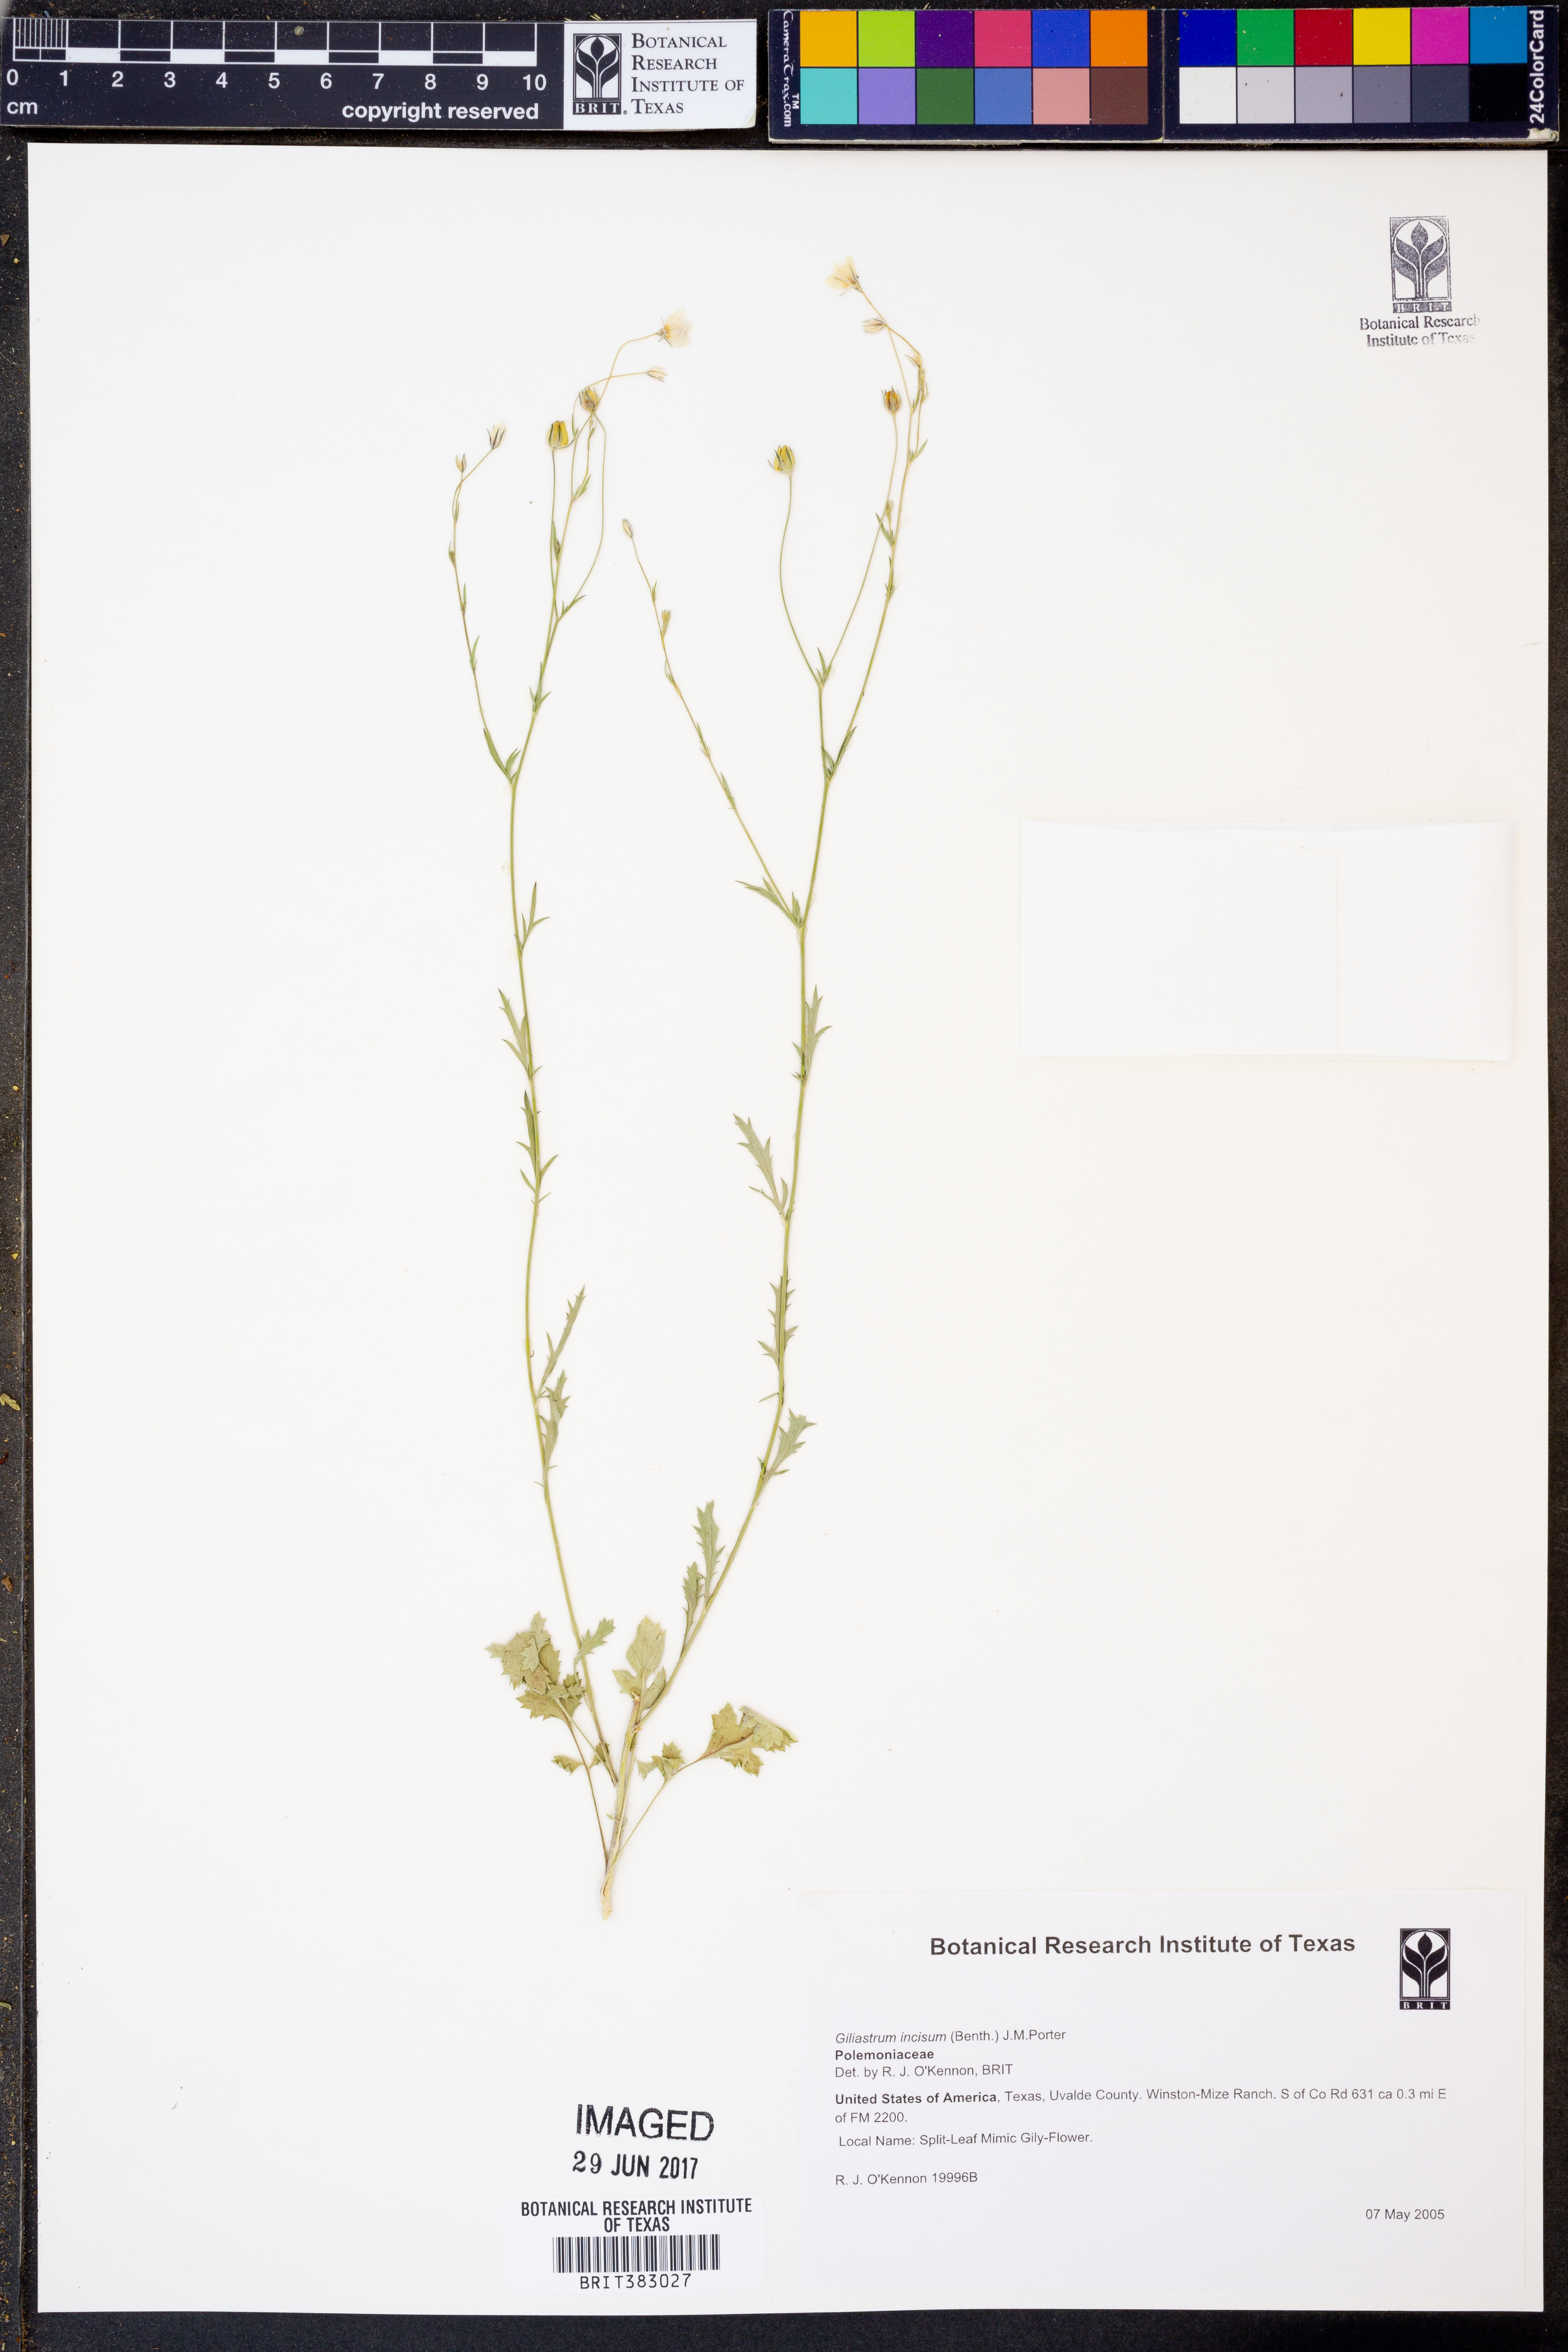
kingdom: Plantae
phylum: Tracheophyta
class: Magnoliopsida
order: Ericales
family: Polemoniaceae
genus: Giliastrum
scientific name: Giliastrum incisum
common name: Splitleaf gilia
